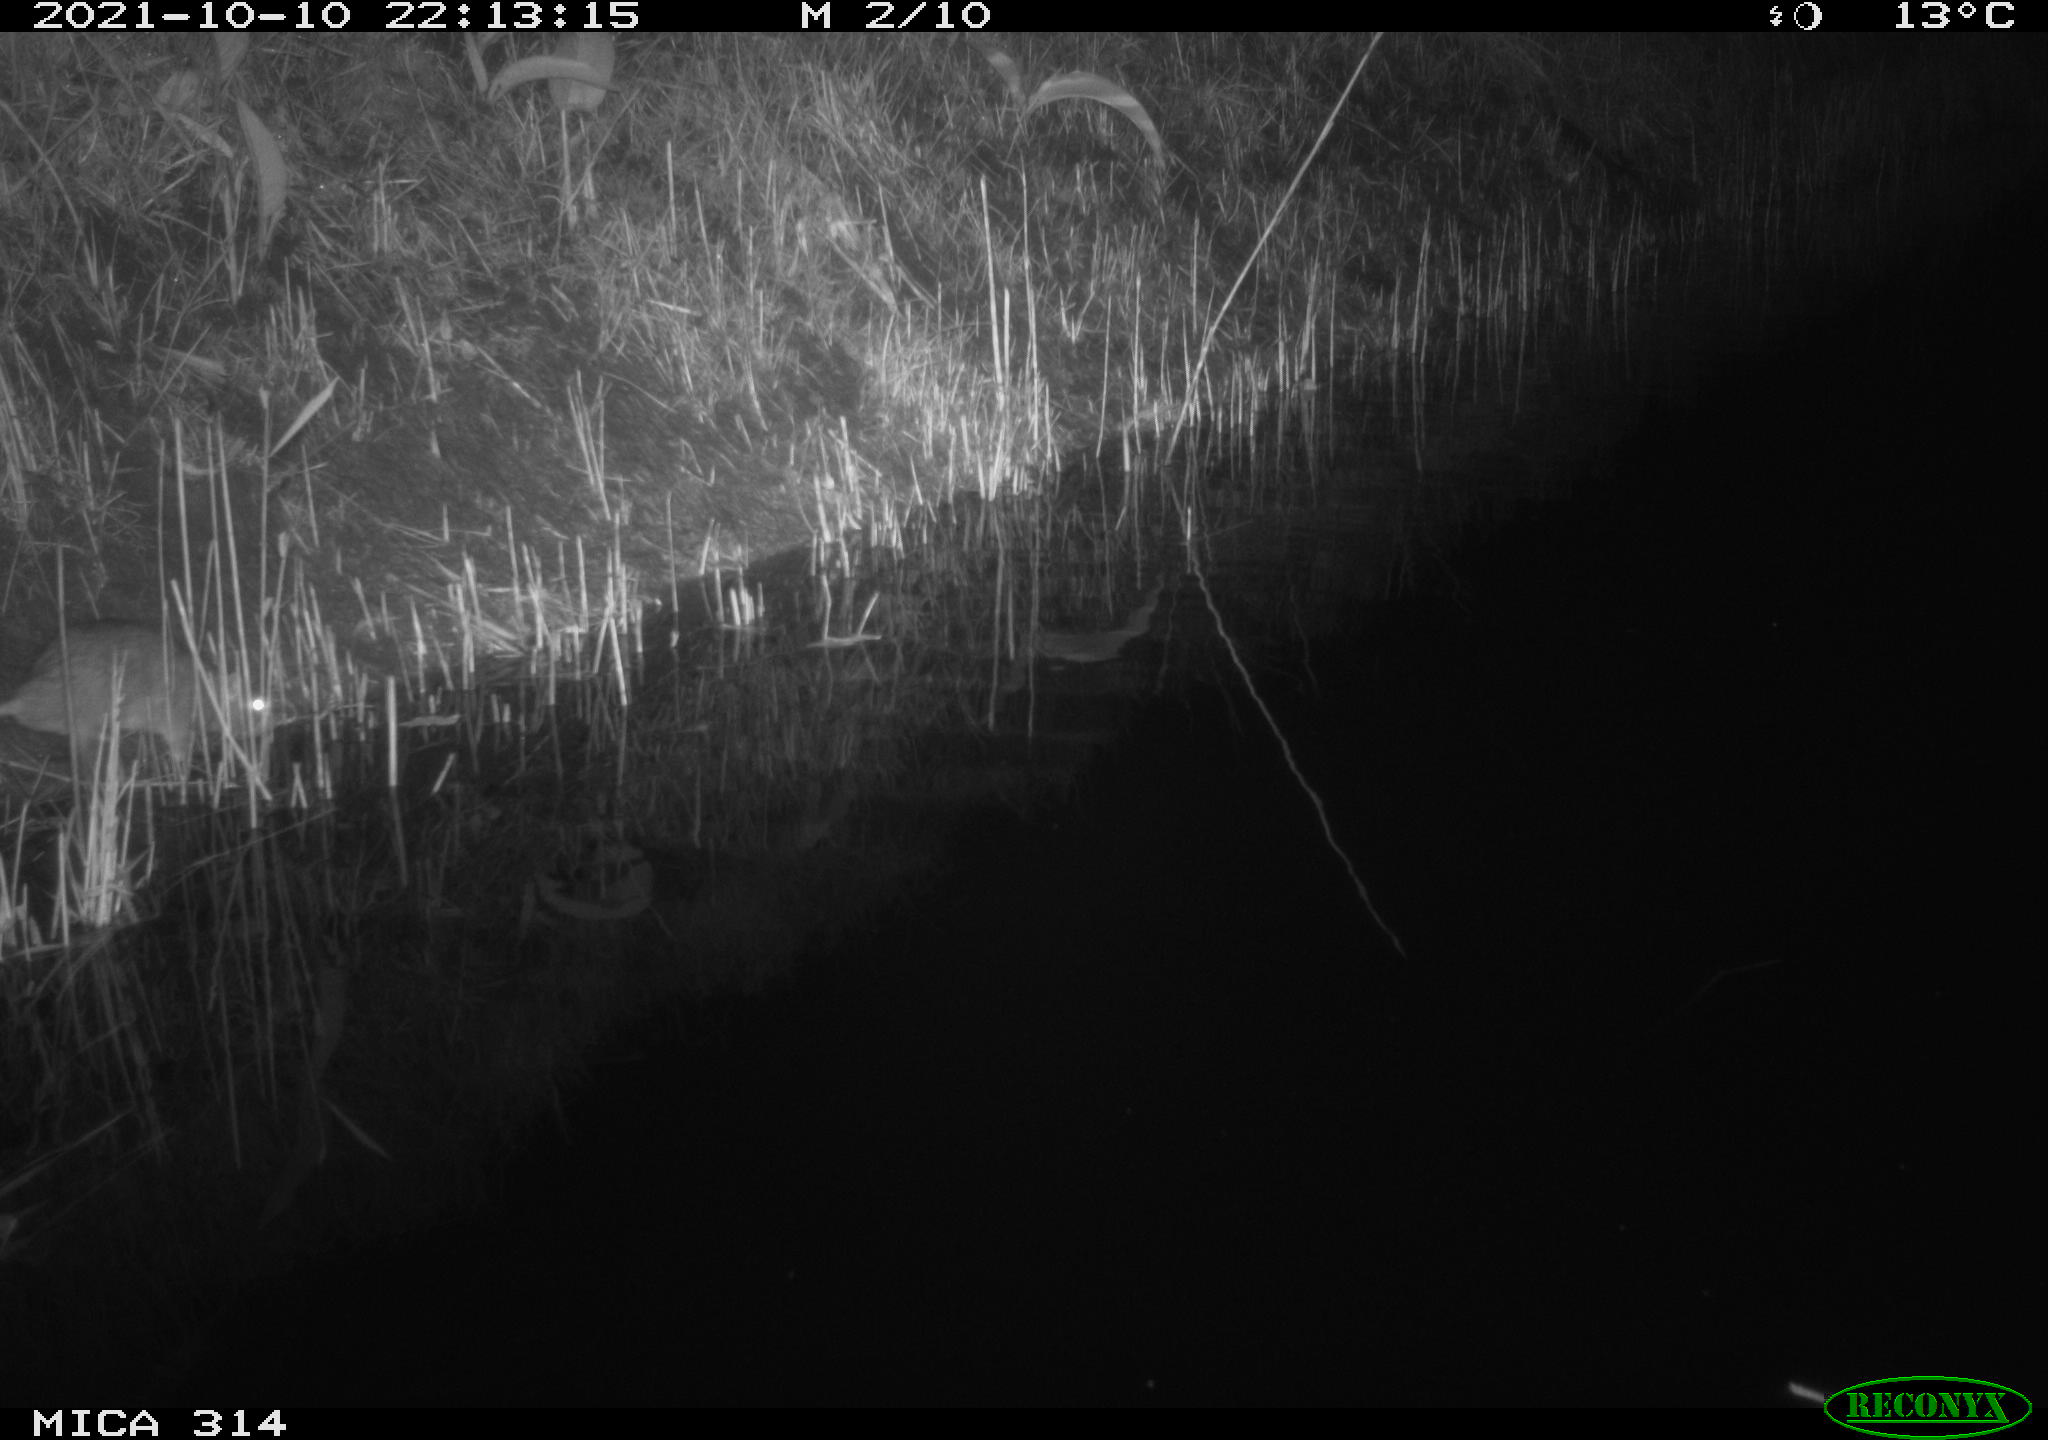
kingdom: Animalia
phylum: Chordata
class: Mammalia
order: Rodentia
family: Muridae
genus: Rattus
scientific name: Rattus norvegicus
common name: Brown rat
